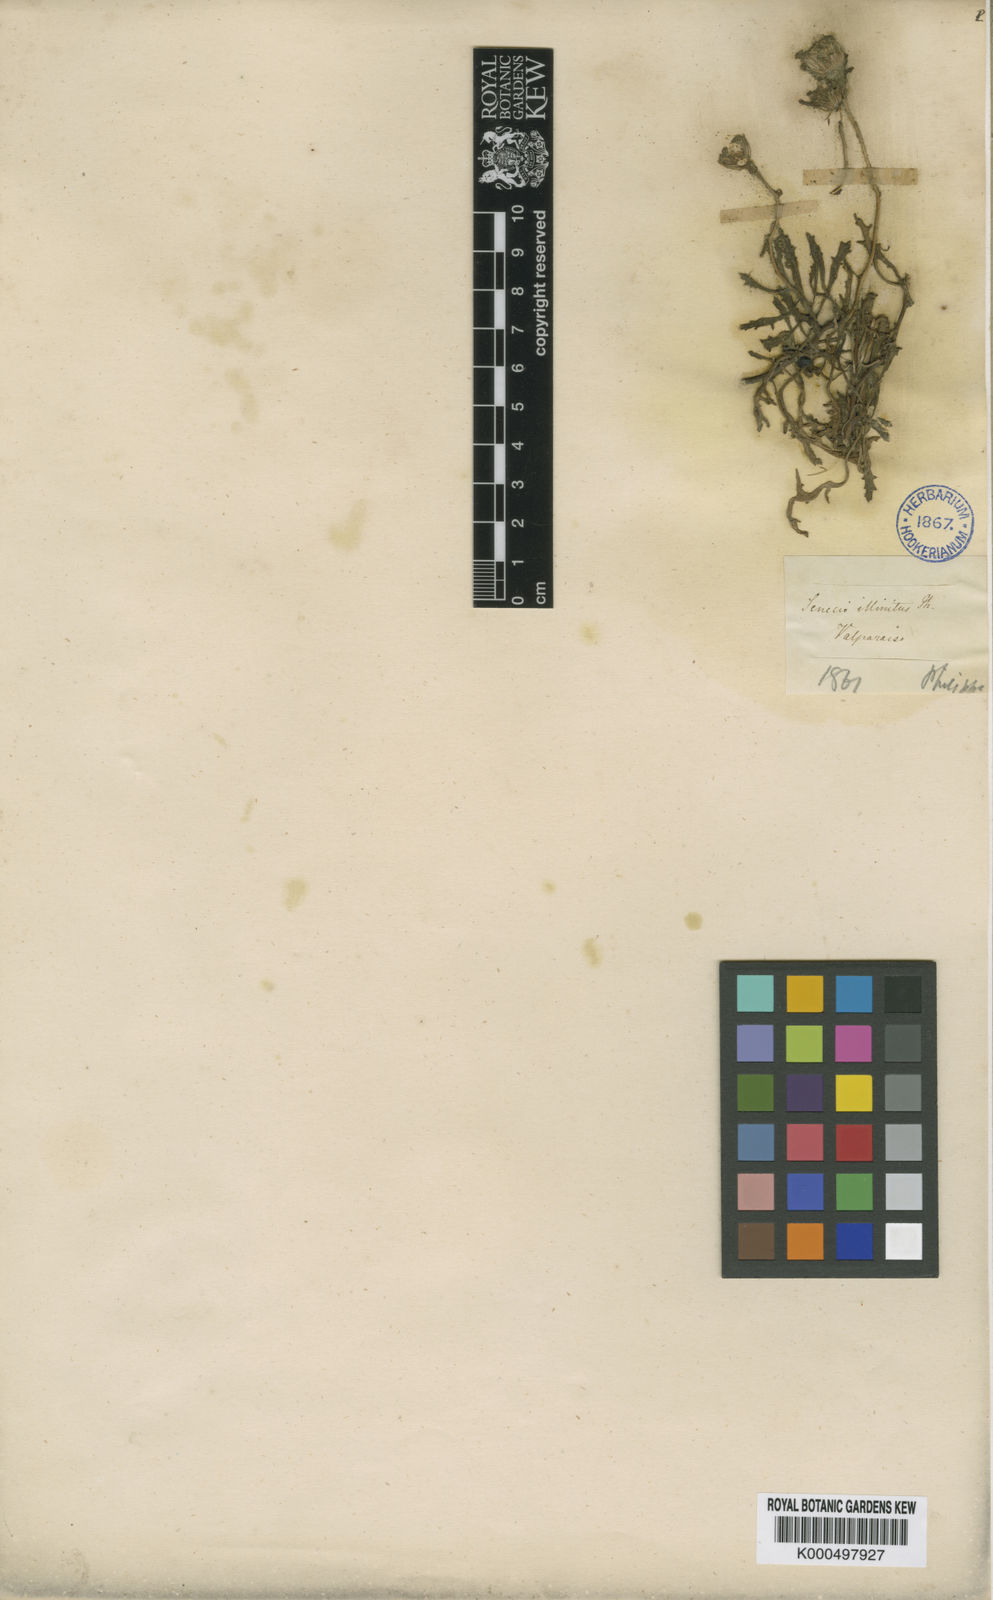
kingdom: Plantae
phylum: Tracheophyta
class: Magnoliopsida
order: Asterales
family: Asteraceae
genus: Senecio
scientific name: Senecio illinitus
